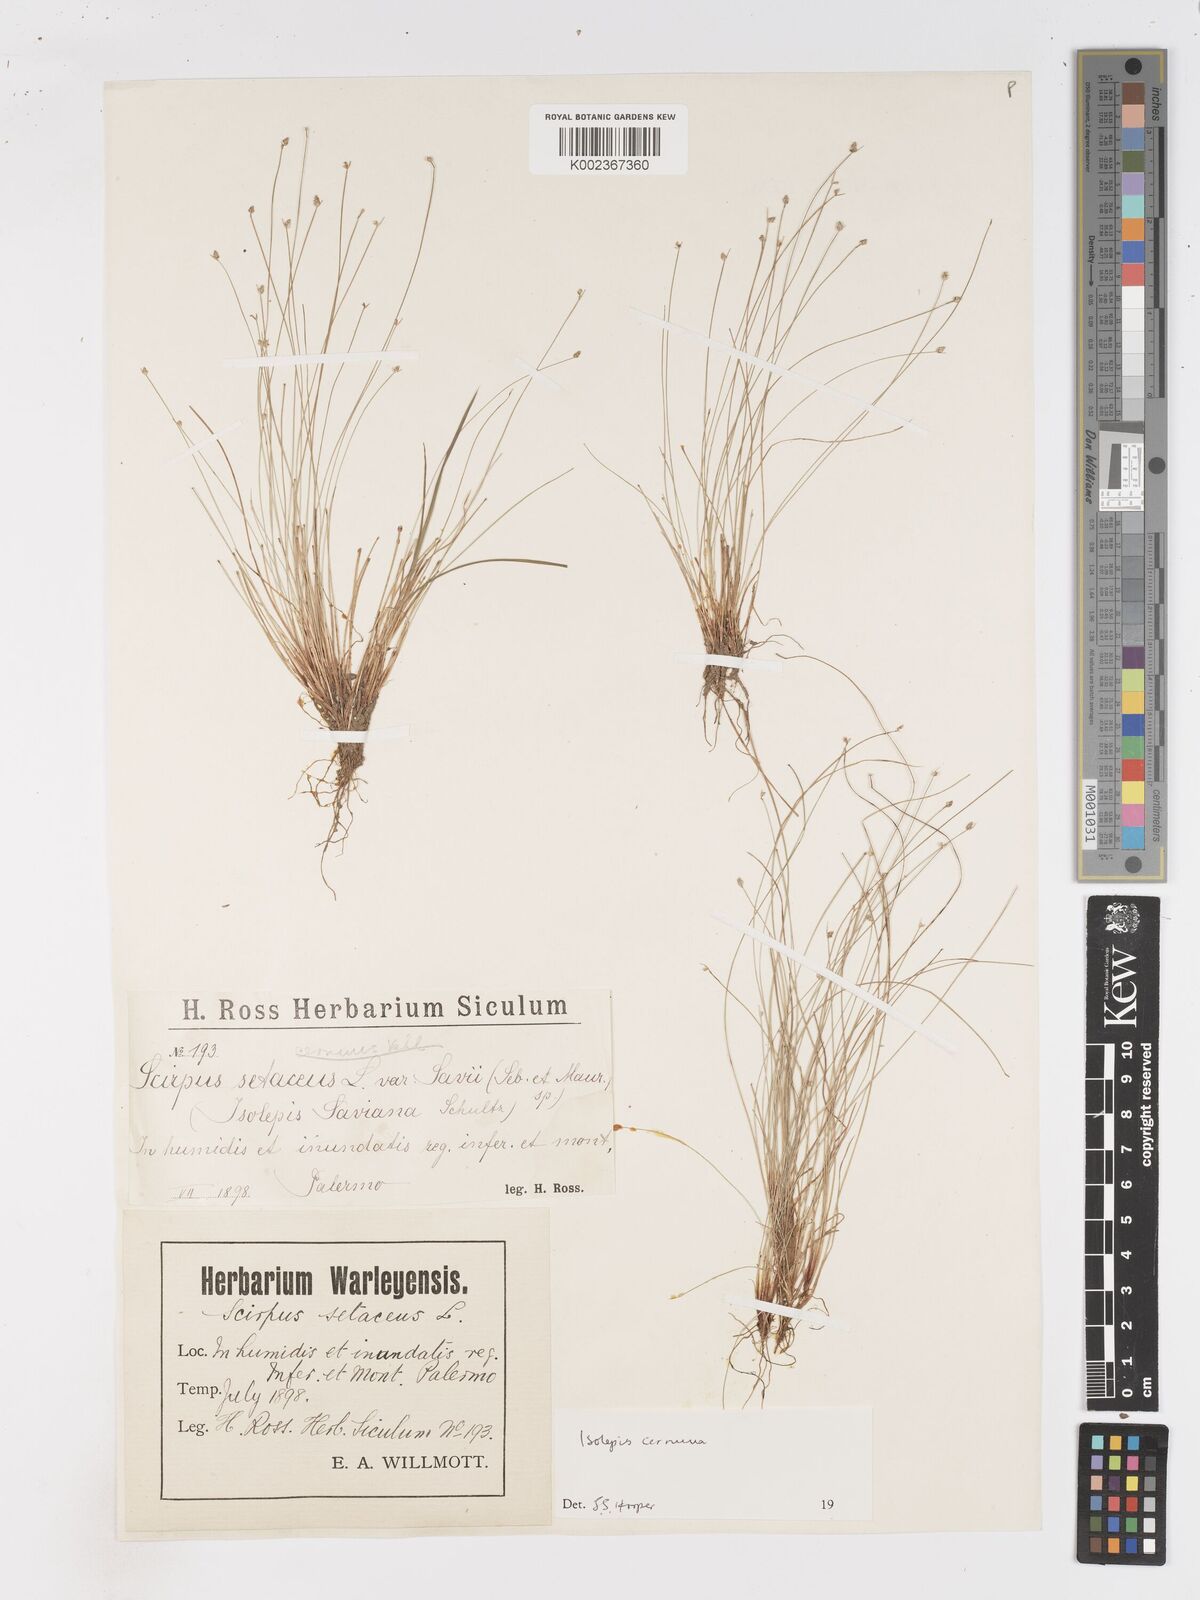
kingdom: Plantae
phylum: Tracheophyta
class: Liliopsida
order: Poales
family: Cyperaceae
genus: Isolepis
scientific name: Isolepis cernua
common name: Slender club-rush
